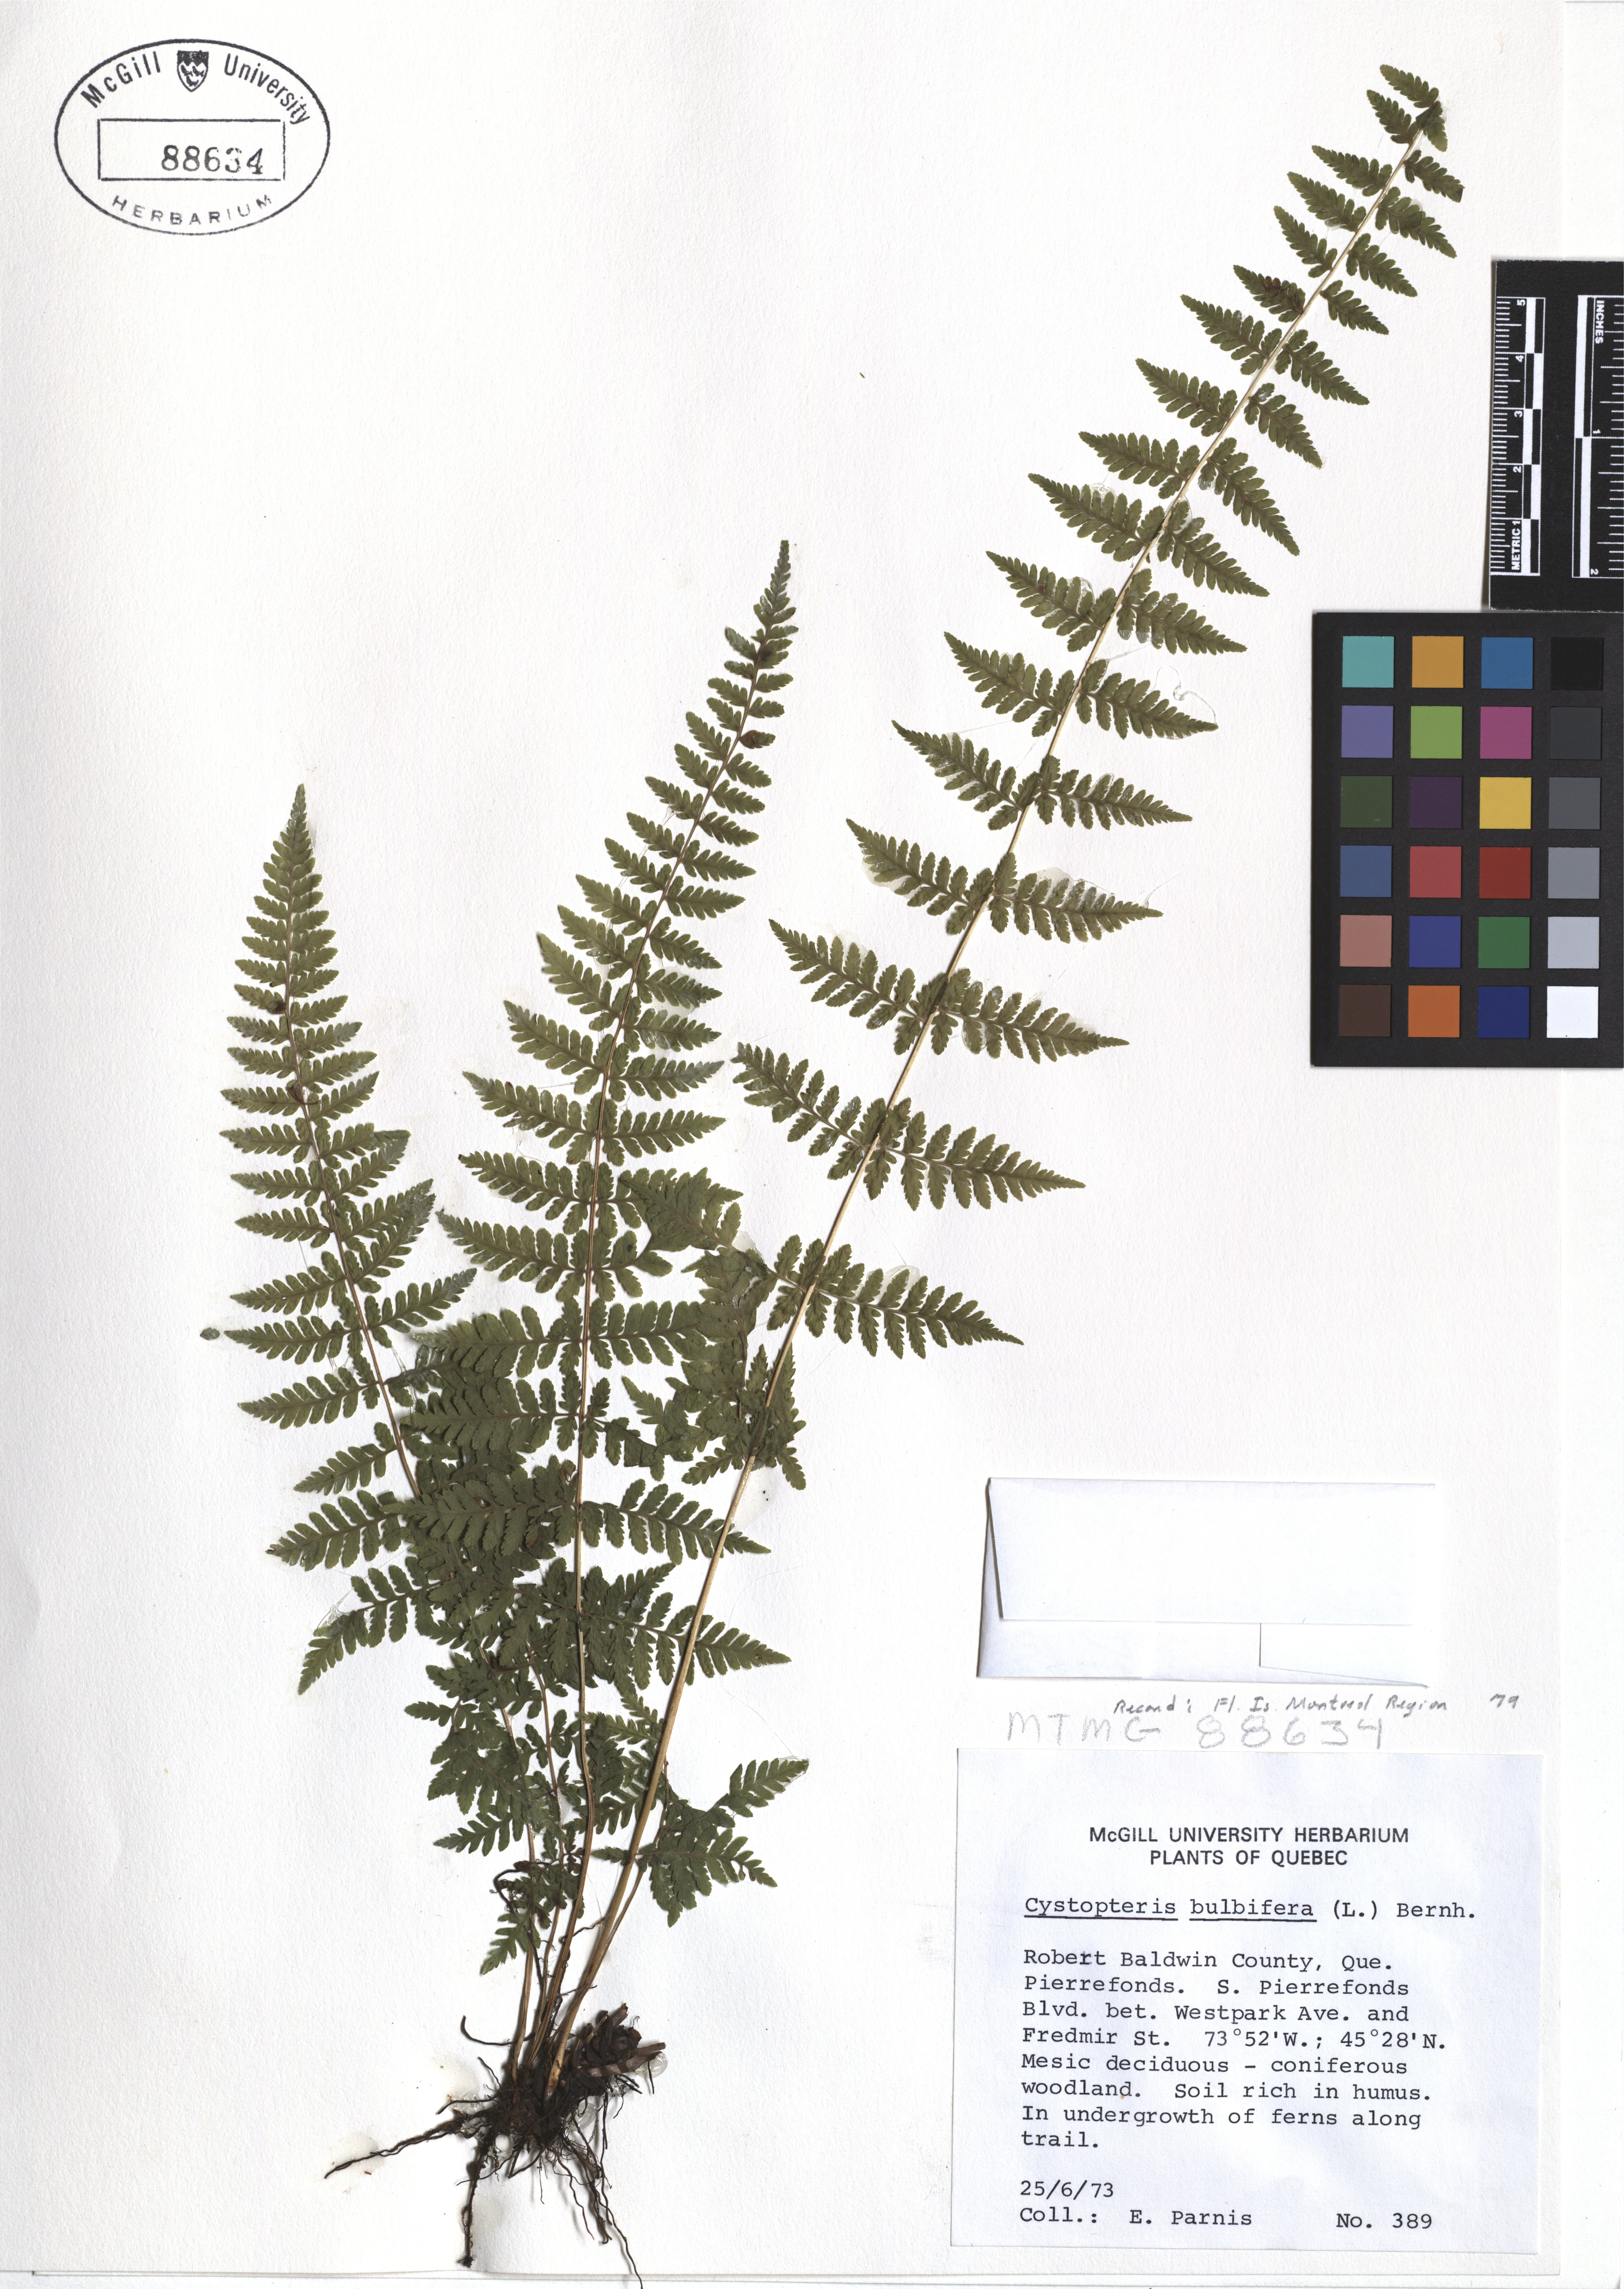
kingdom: Plantae
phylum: Tracheophyta
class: Polypodiopsida
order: Polypodiales
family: Cystopteridaceae
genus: Cystopteris
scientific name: Cystopteris bulbifera
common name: Bulblet bladder fern
